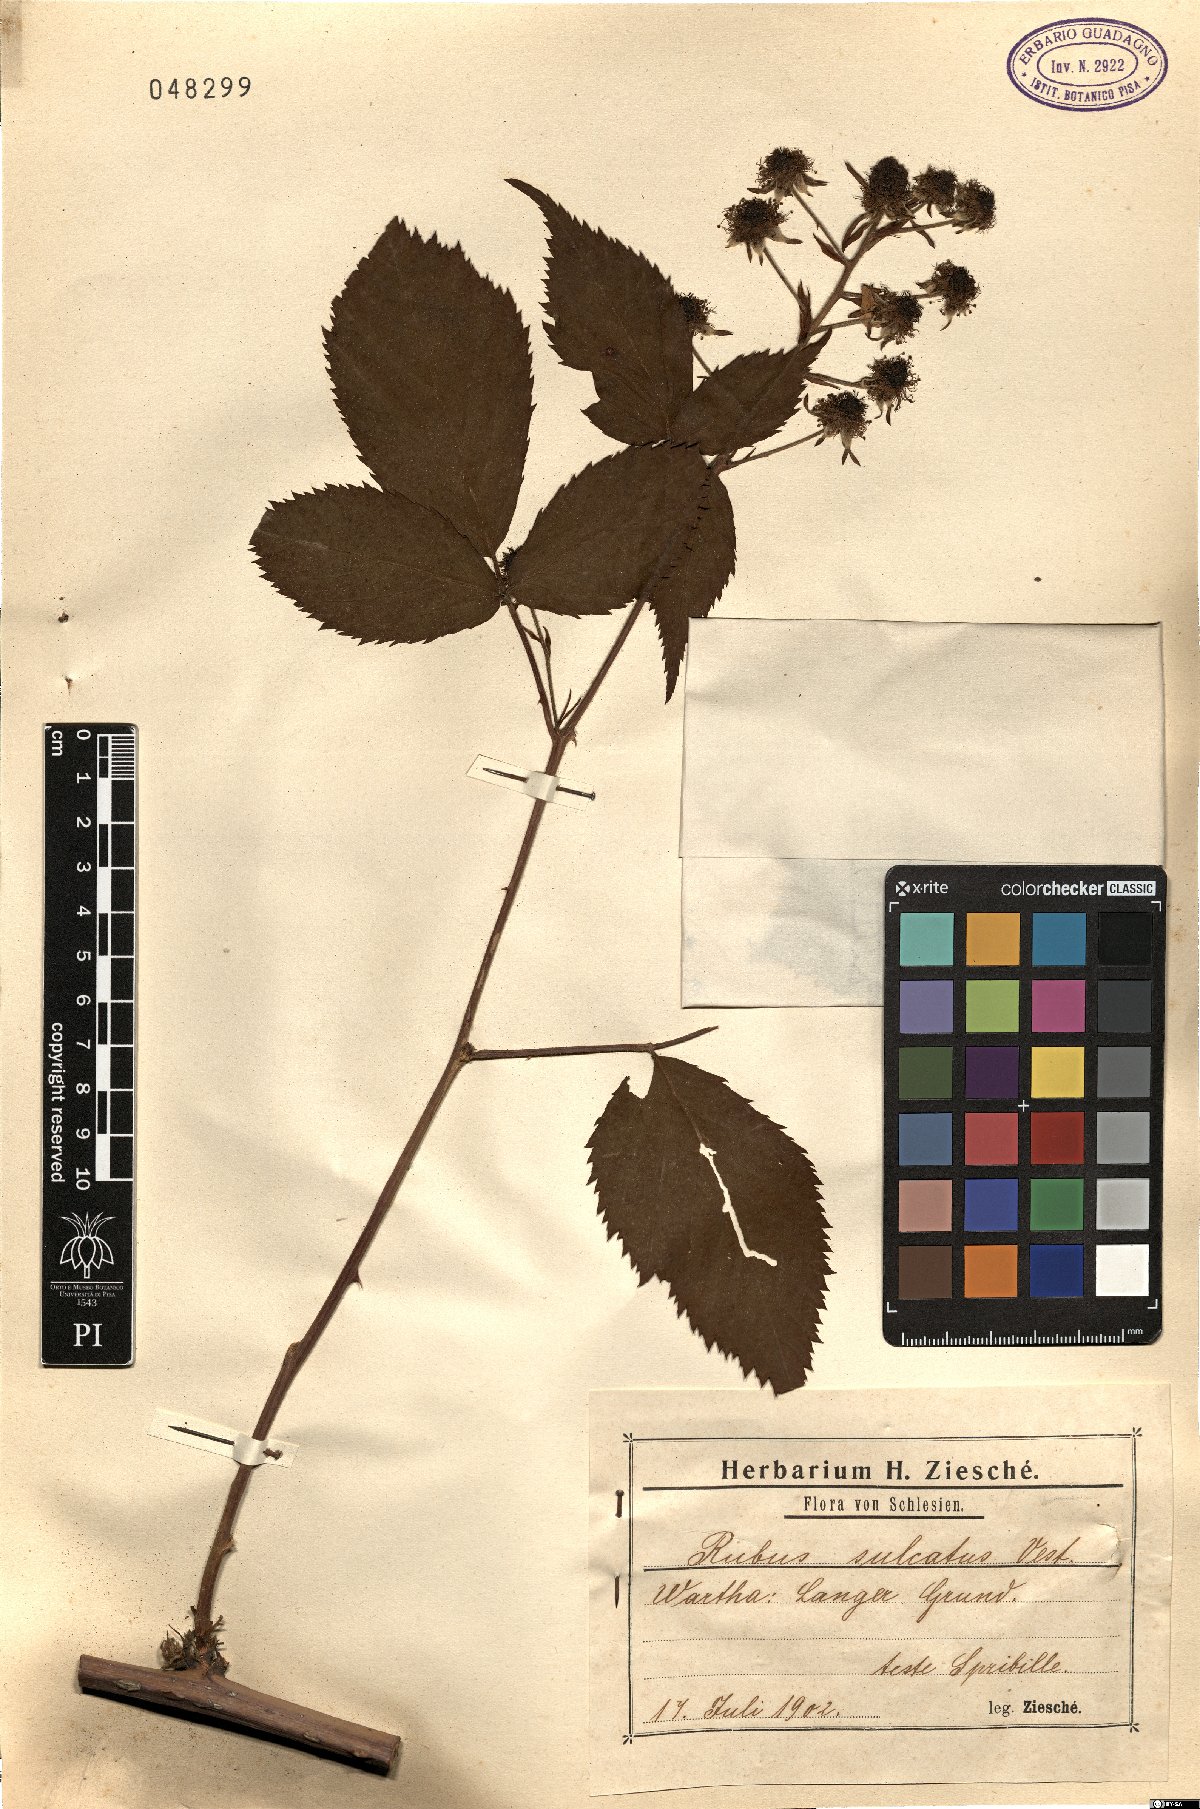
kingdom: Plantae
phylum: Tracheophyta
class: Magnoliopsida
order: Rosales
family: Rosaceae
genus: Rubus
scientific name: Rubus sulcatus
